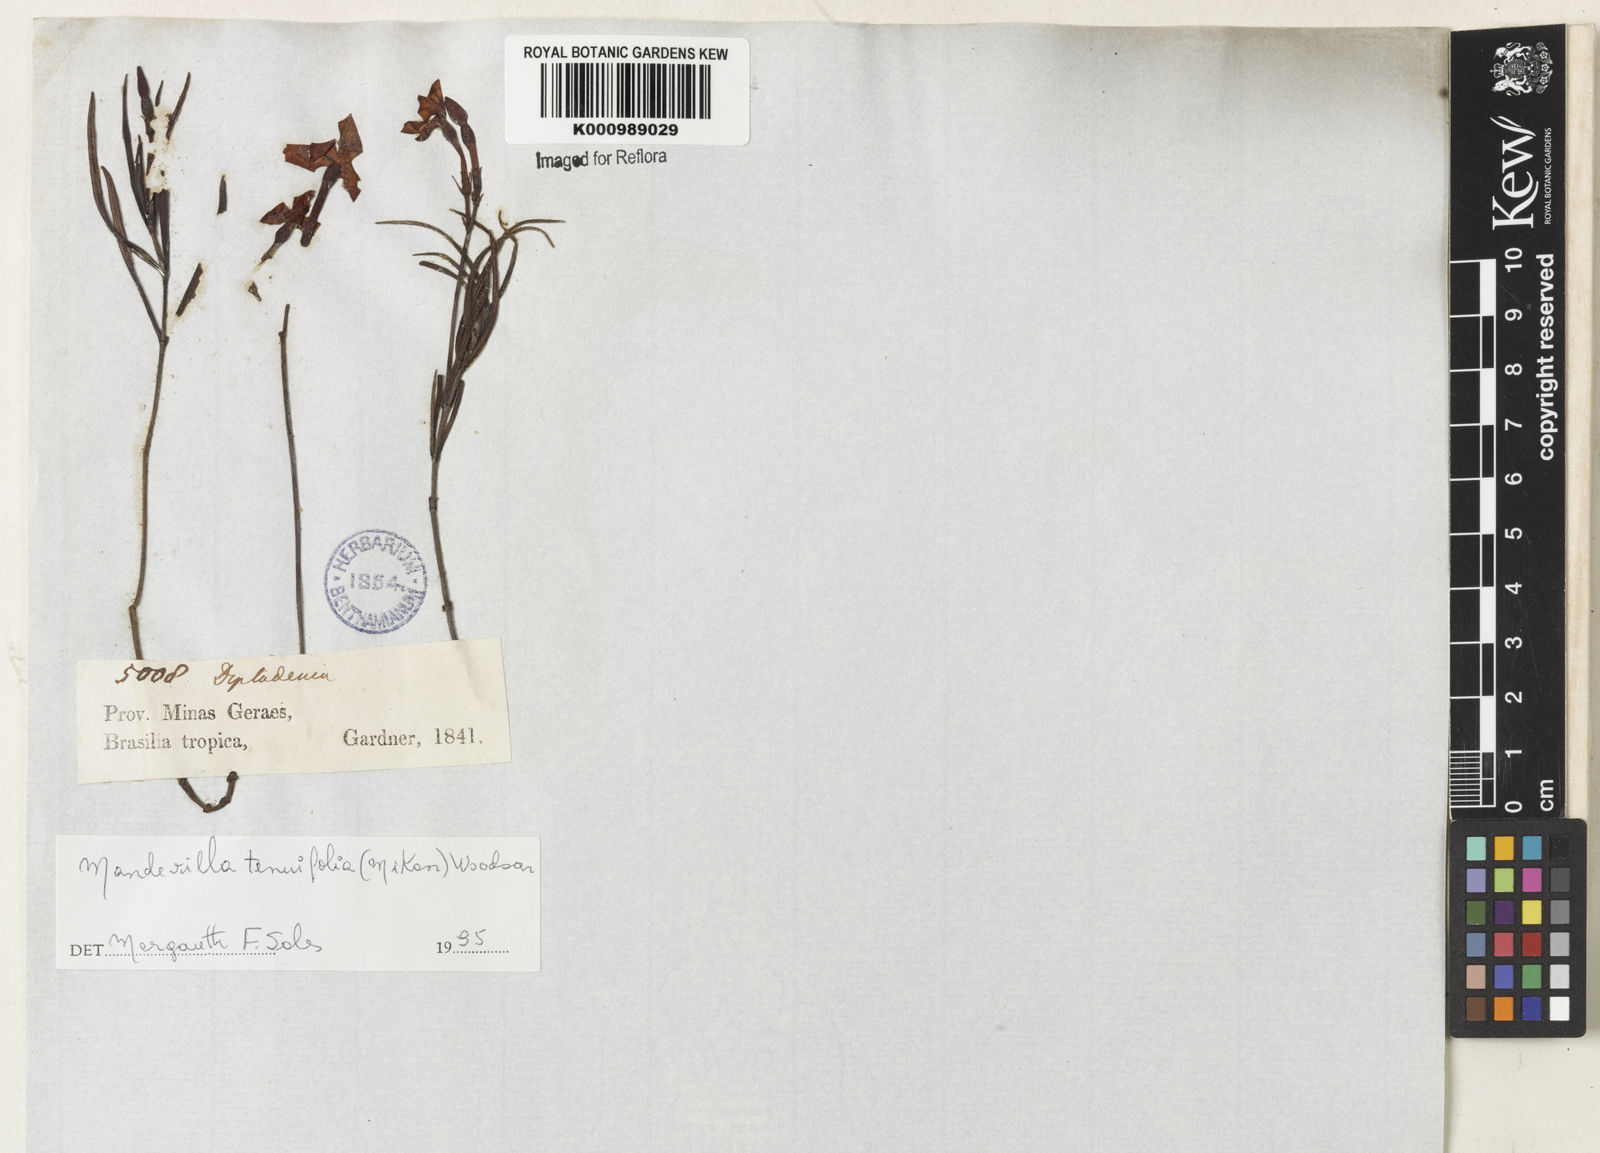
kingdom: Plantae
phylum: Tracheophyta
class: Magnoliopsida
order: Gentianales
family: Apocynaceae
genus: Mandevilla
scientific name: Mandevilla tenuifolia
